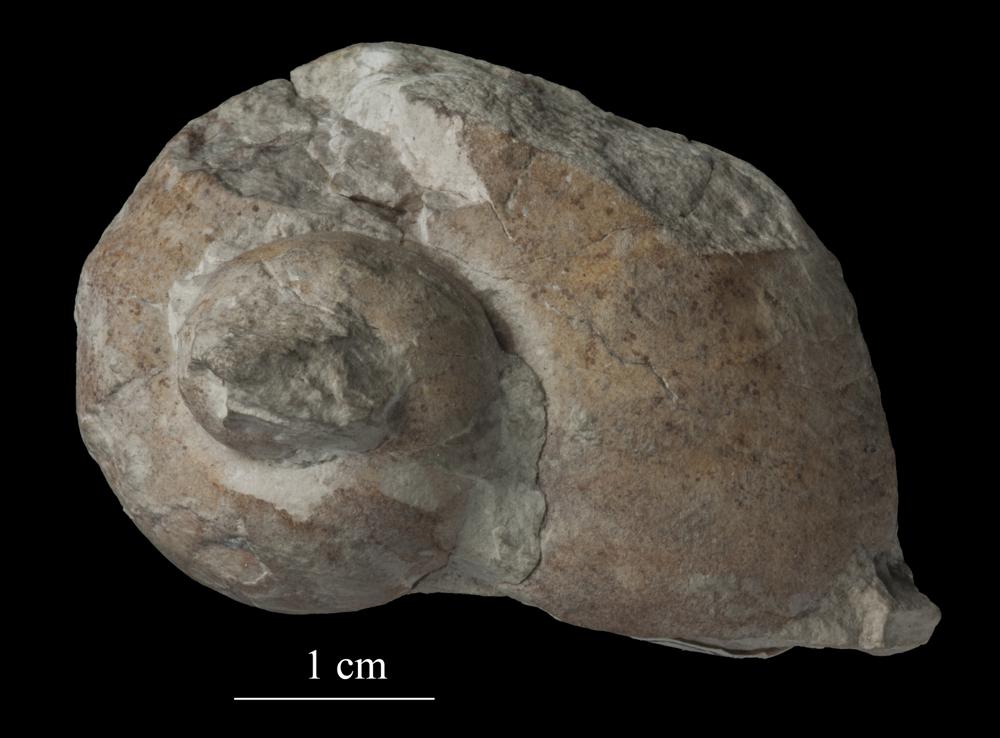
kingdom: Animalia
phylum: Mollusca
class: Gastropoda
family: Holopeidae
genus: Holopea
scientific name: Holopea ampullacea
